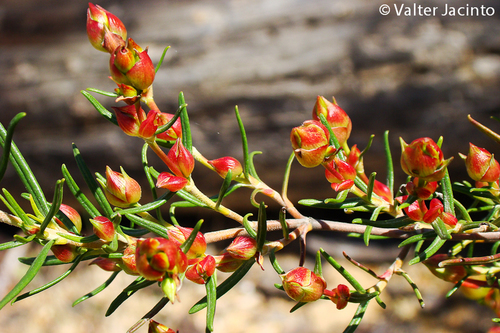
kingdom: Plantae
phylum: Tracheophyta
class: Magnoliopsida
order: Malvales
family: Cistaceae
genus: Cistus
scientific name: Cistus libanotis
